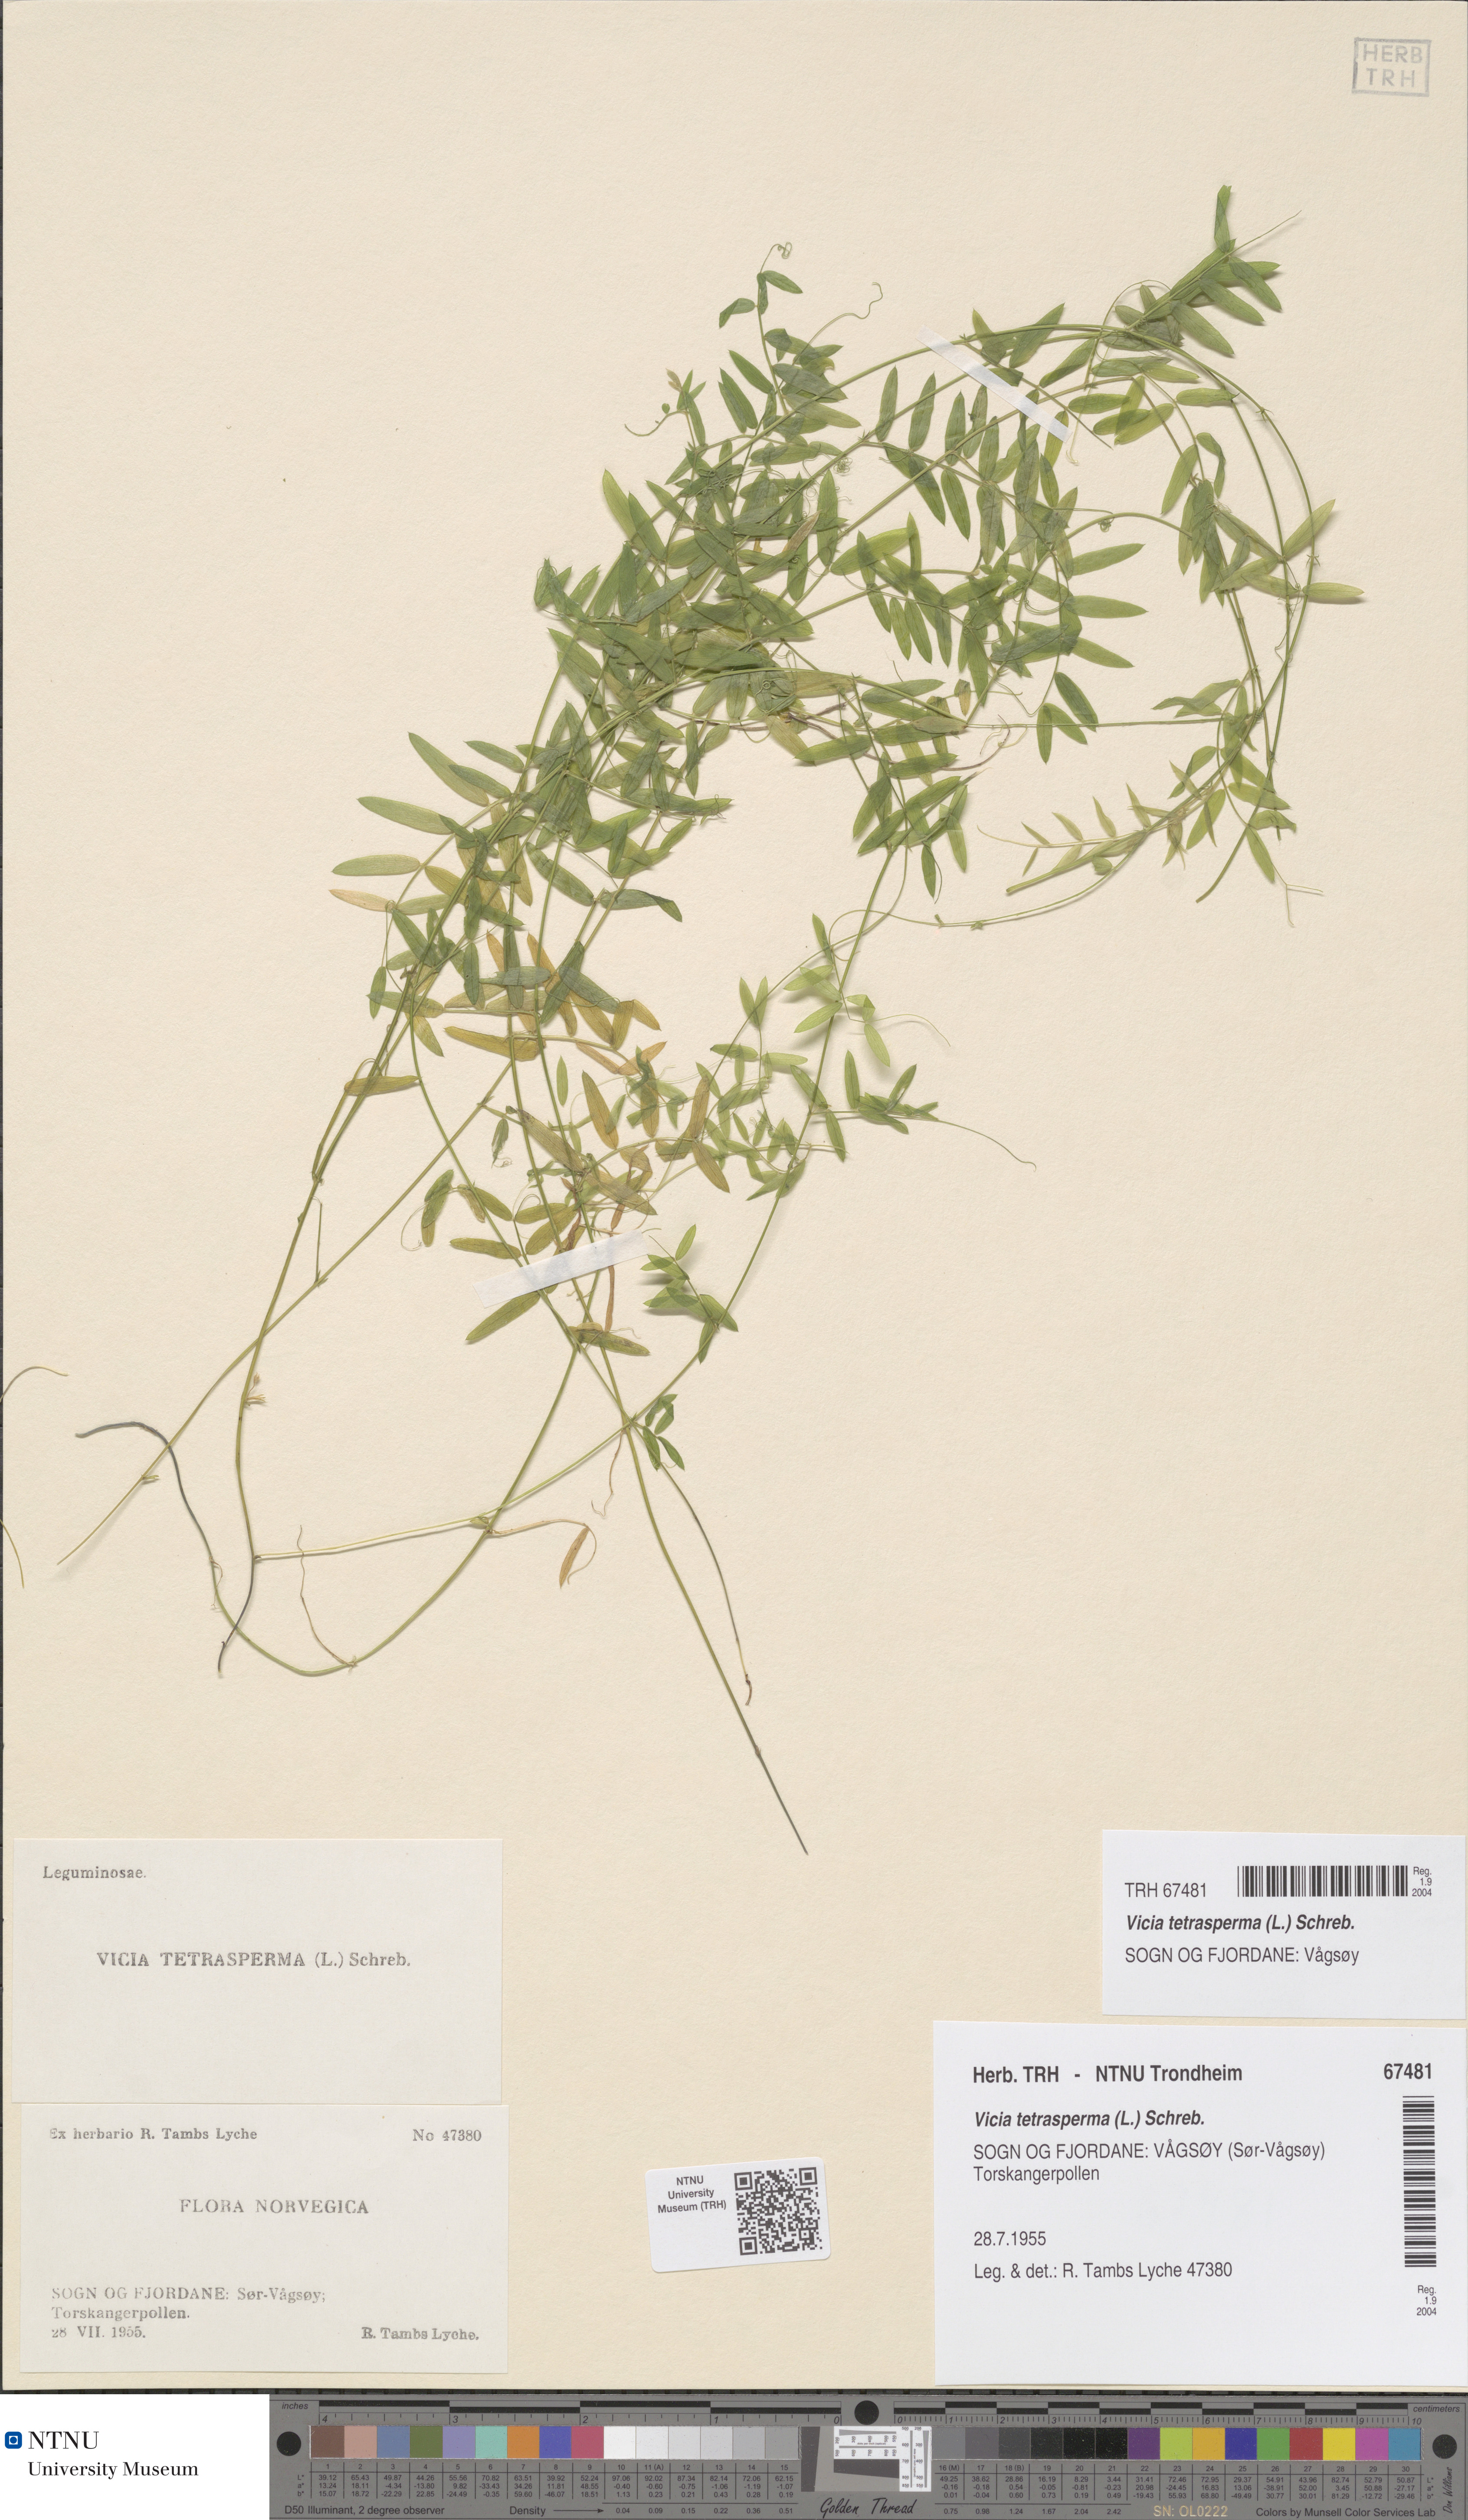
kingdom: Plantae
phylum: Tracheophyta
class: Magnoliopsida
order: Fabales
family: Fabaceae
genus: Vicia
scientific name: Vicia tetrasperma
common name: Smooth tare
